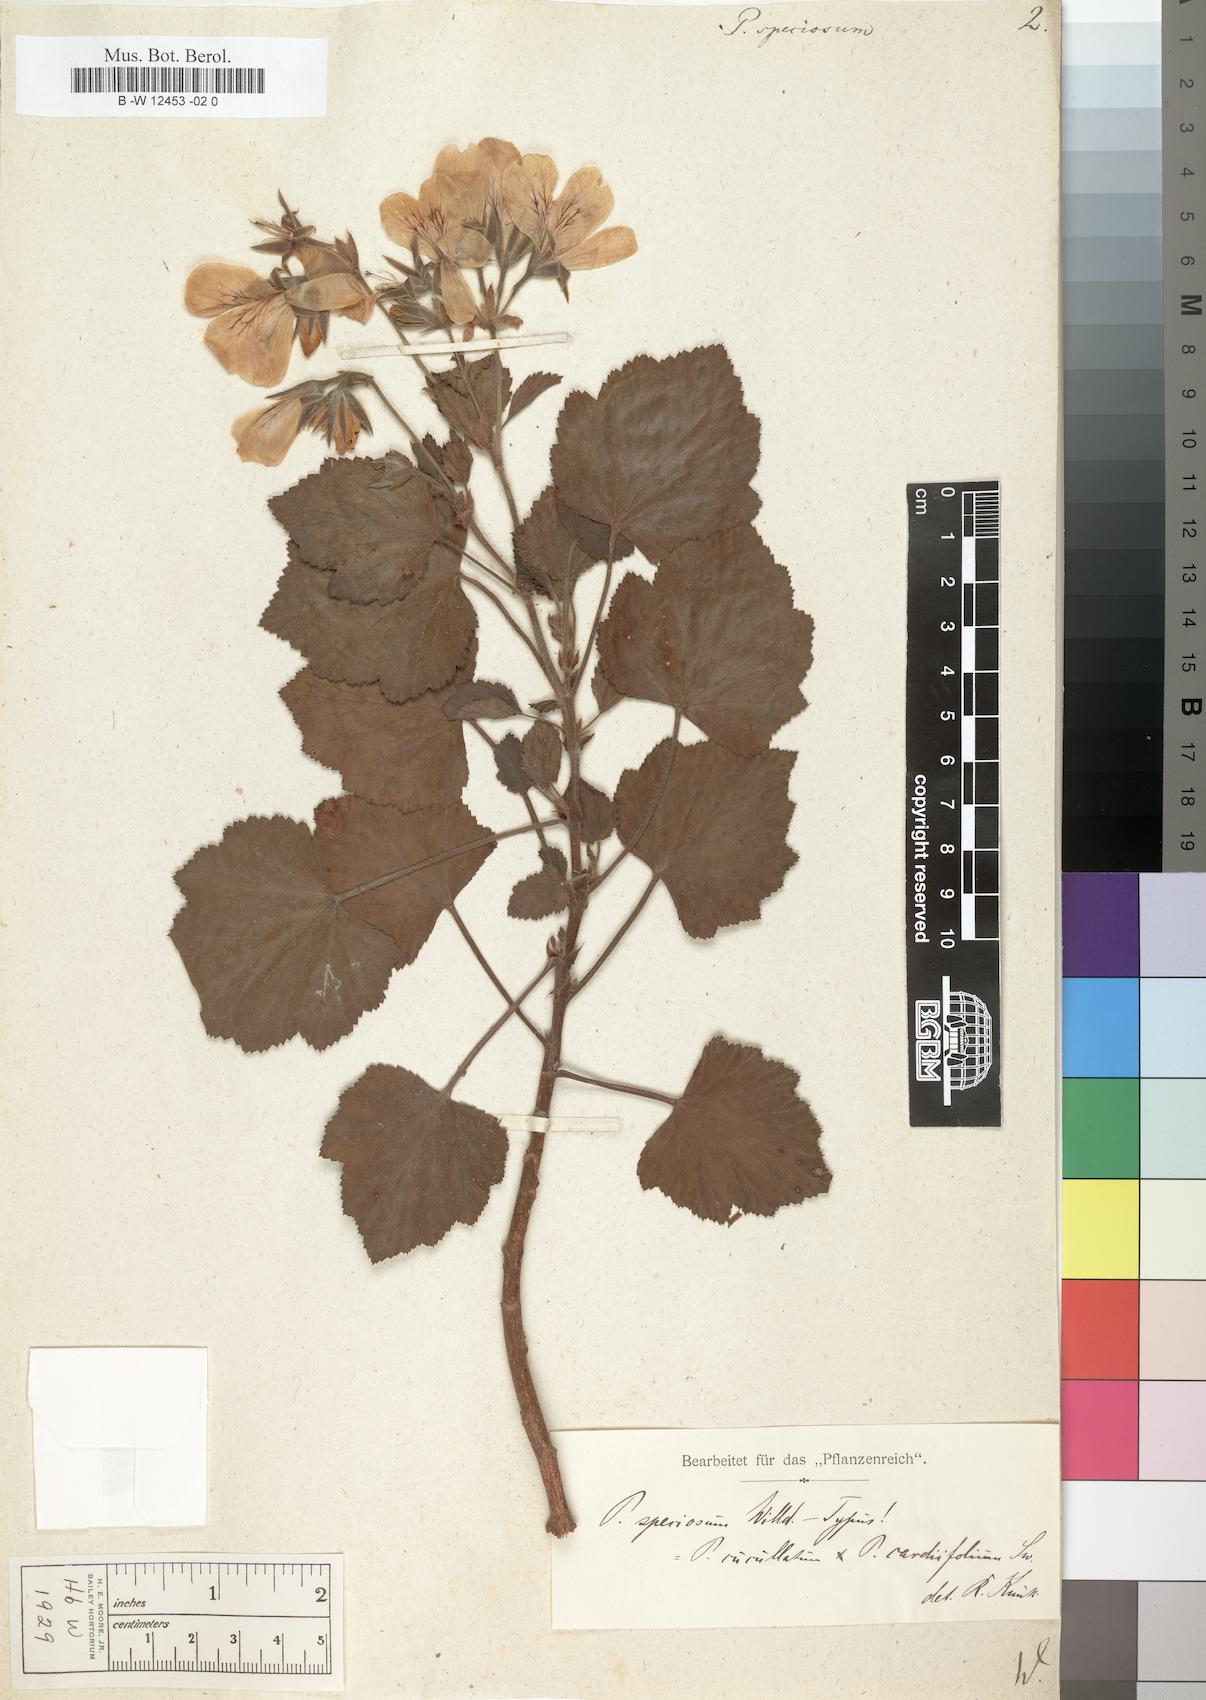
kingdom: Plantae
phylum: Tracheophyta
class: Magnoliopsida
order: Geraniales
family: Geraniaceae
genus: Monsonia
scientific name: Monsonia lheritieri
